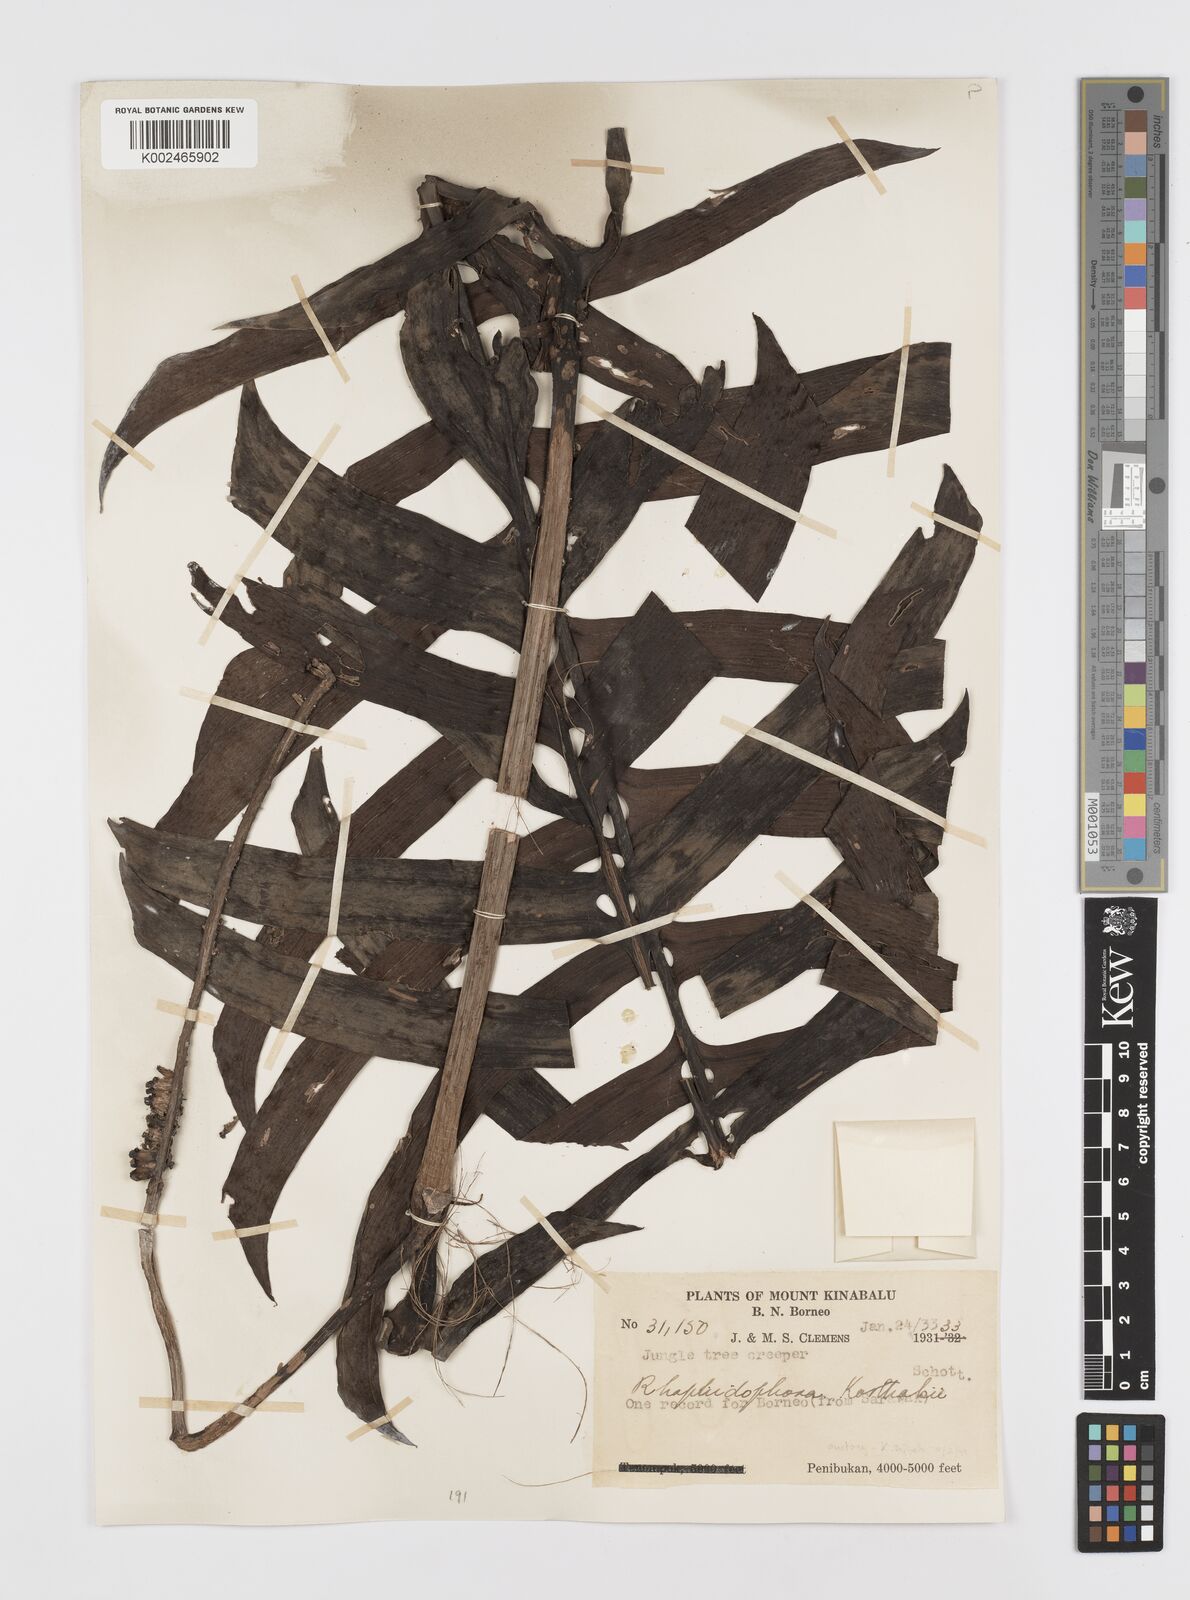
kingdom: Plantae
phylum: Tracheophyta
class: Liliopsida
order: Alismatales
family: Araceae
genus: Rhaphidophora
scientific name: Rhaphidophora korthalsii
